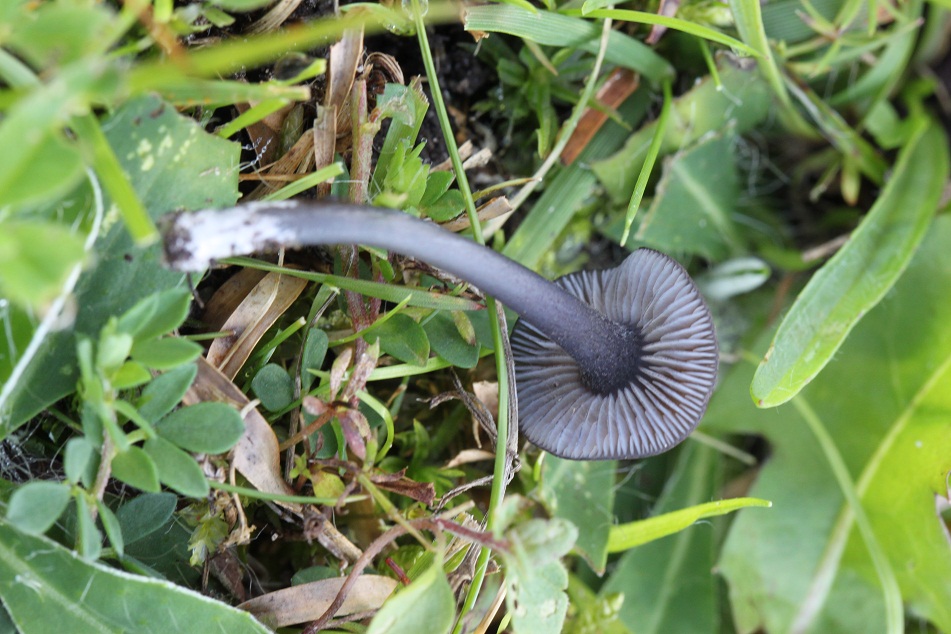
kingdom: Fungi
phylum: Basidiomycota
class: Agaricomycetes
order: Agaricales
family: Entolomataceae
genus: Entoloma
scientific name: Entoloma chalybeum
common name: blåbladet rødblad
